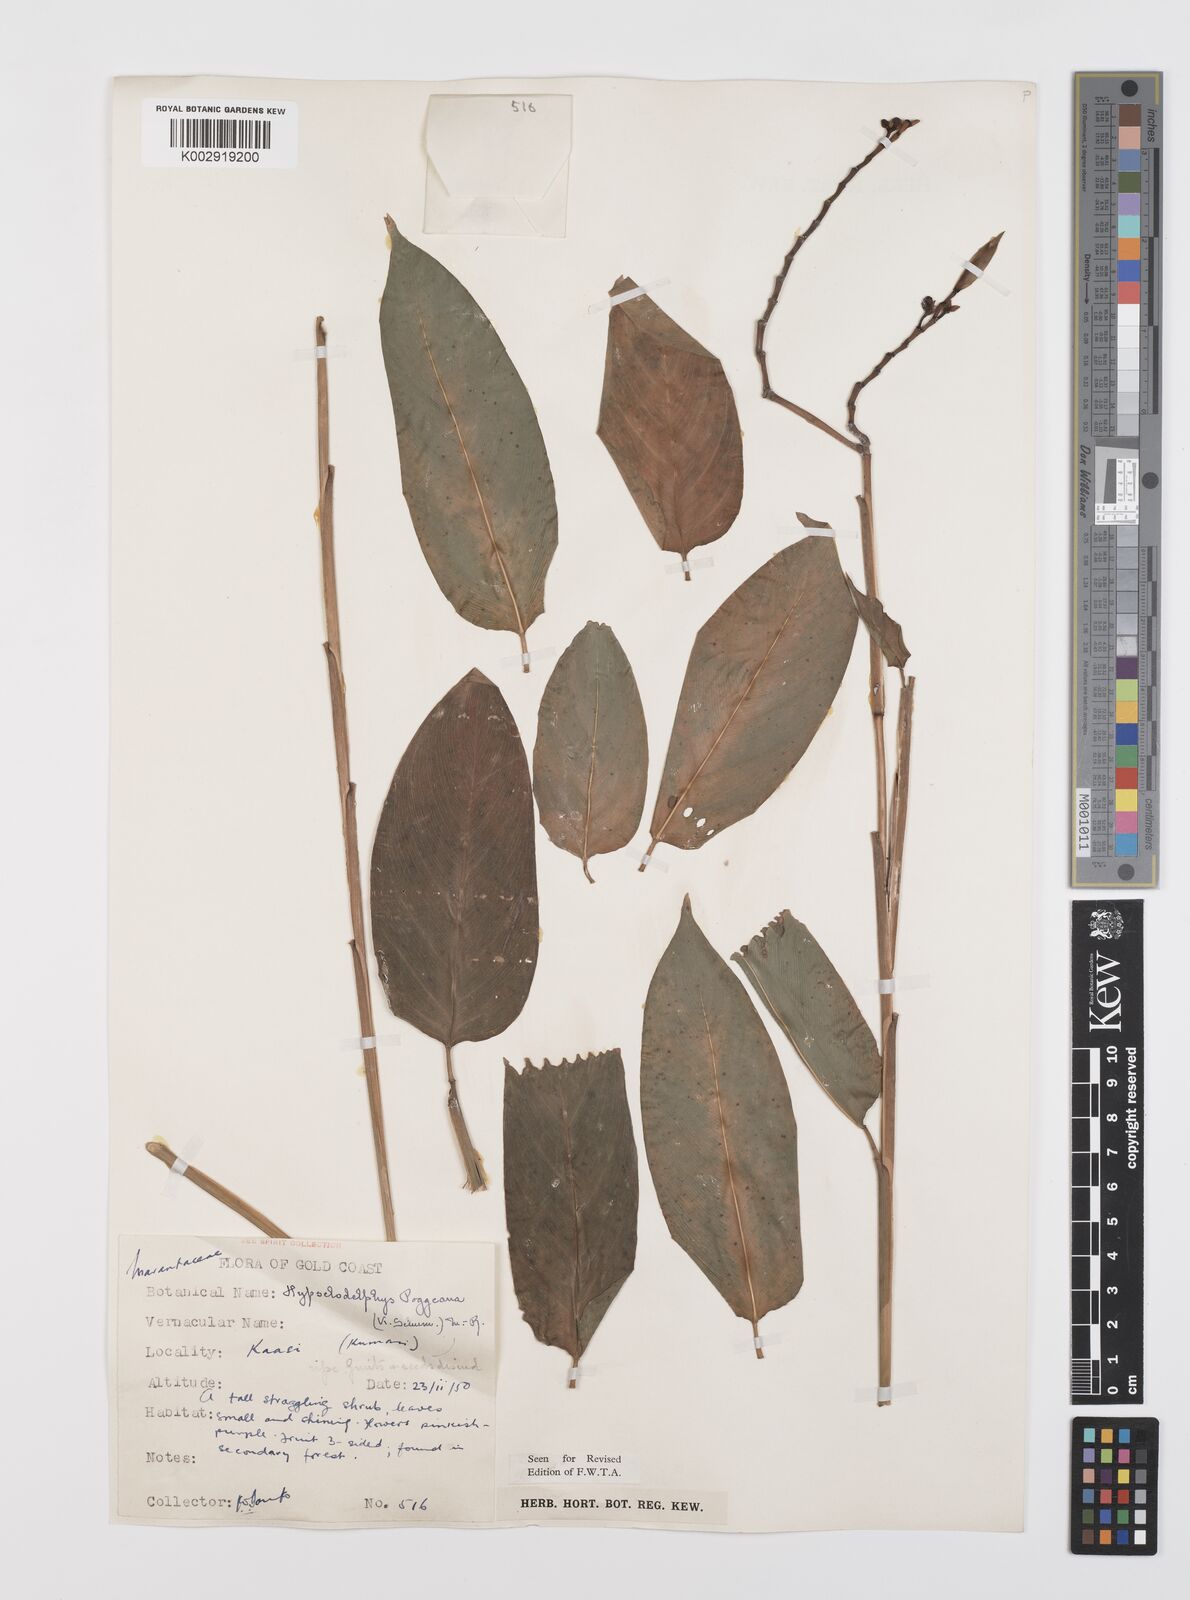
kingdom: Plantae
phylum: Tracheophyta
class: Liliopsida
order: Zingiberales
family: Marantaceae
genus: Hypselodelphys
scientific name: Hypselodelphys poggeana
